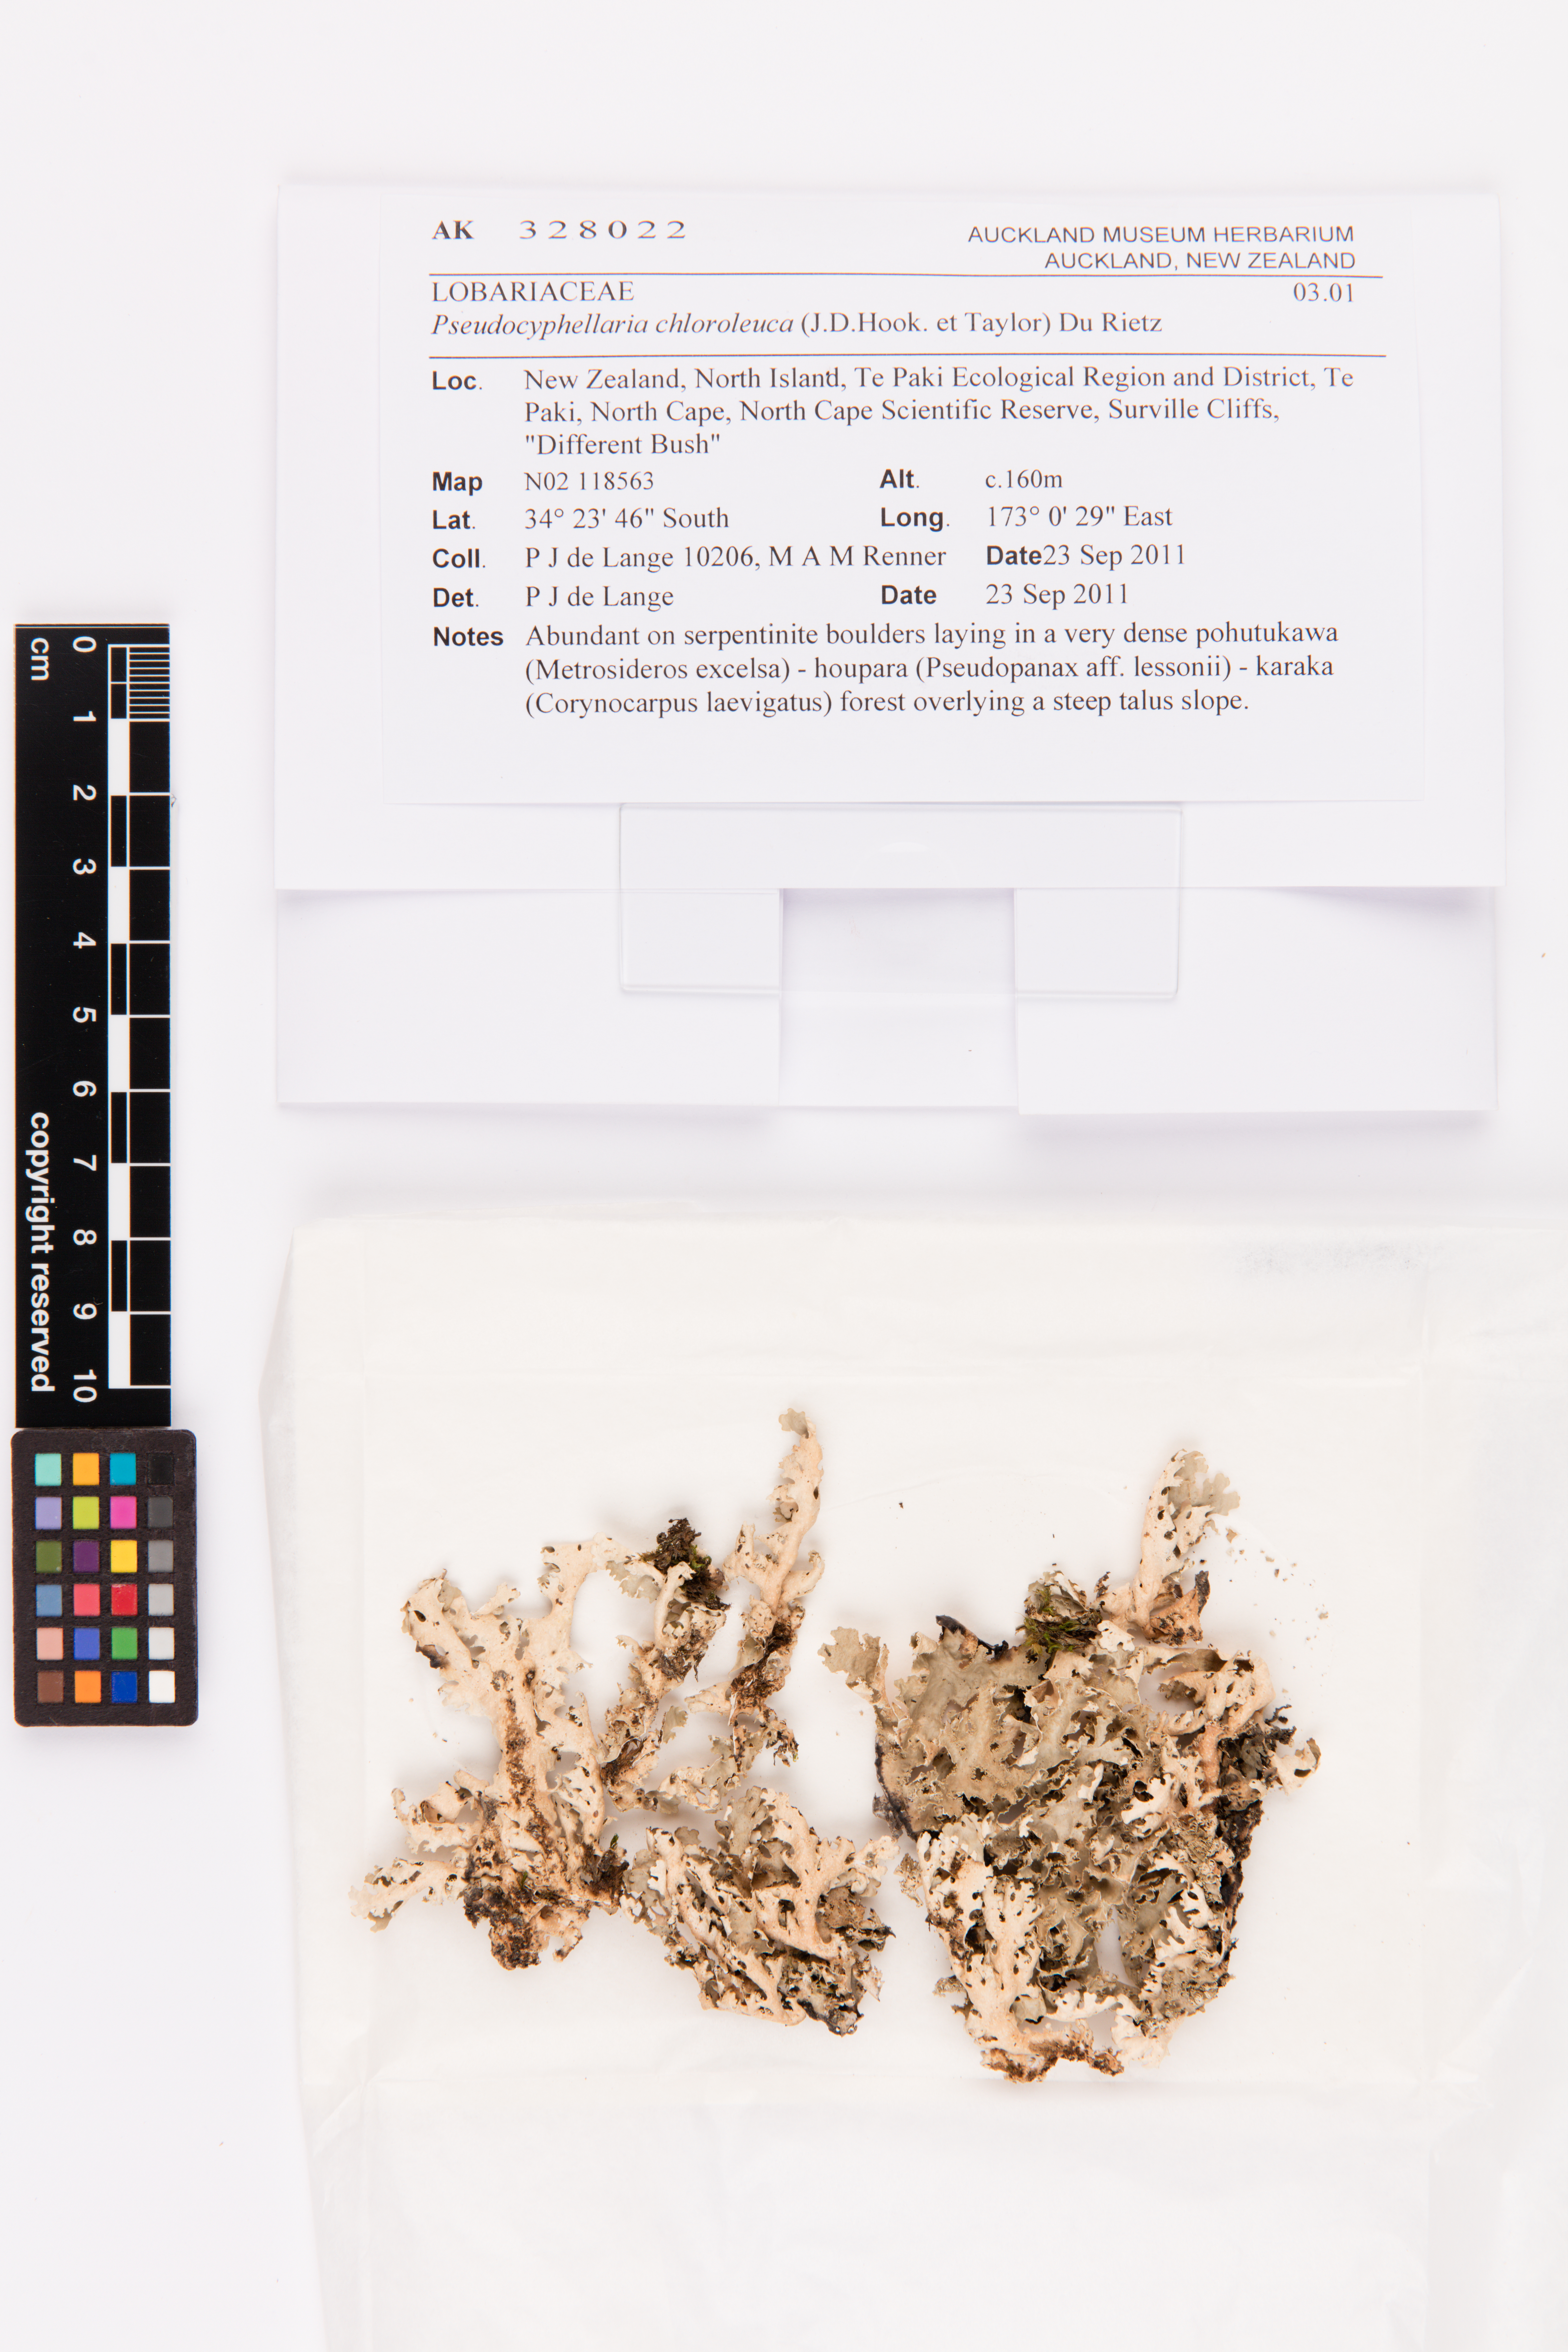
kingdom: Fungi
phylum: Ascomycota
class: Lecanoromycetes
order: Peltigerales
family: Lobariaceae
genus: Pseudocyphellaria
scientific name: Pseudocyphellaria chloroleuca
